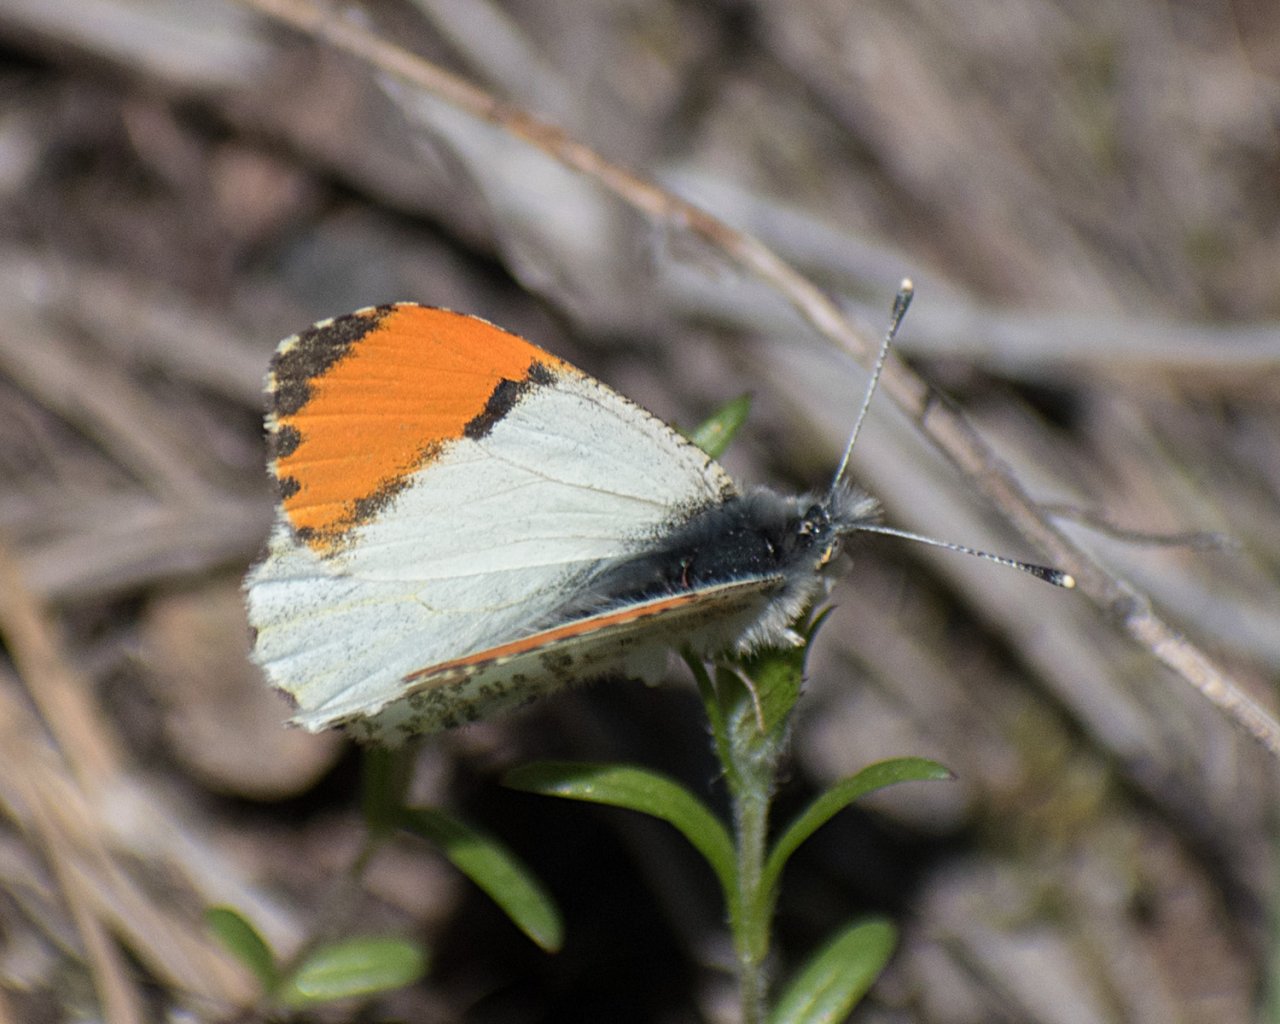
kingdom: Animalia
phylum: Arthropoda
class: Insecta
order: Lepidoptera
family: Pieridae
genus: Anthocharis
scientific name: Anthocharis sara
